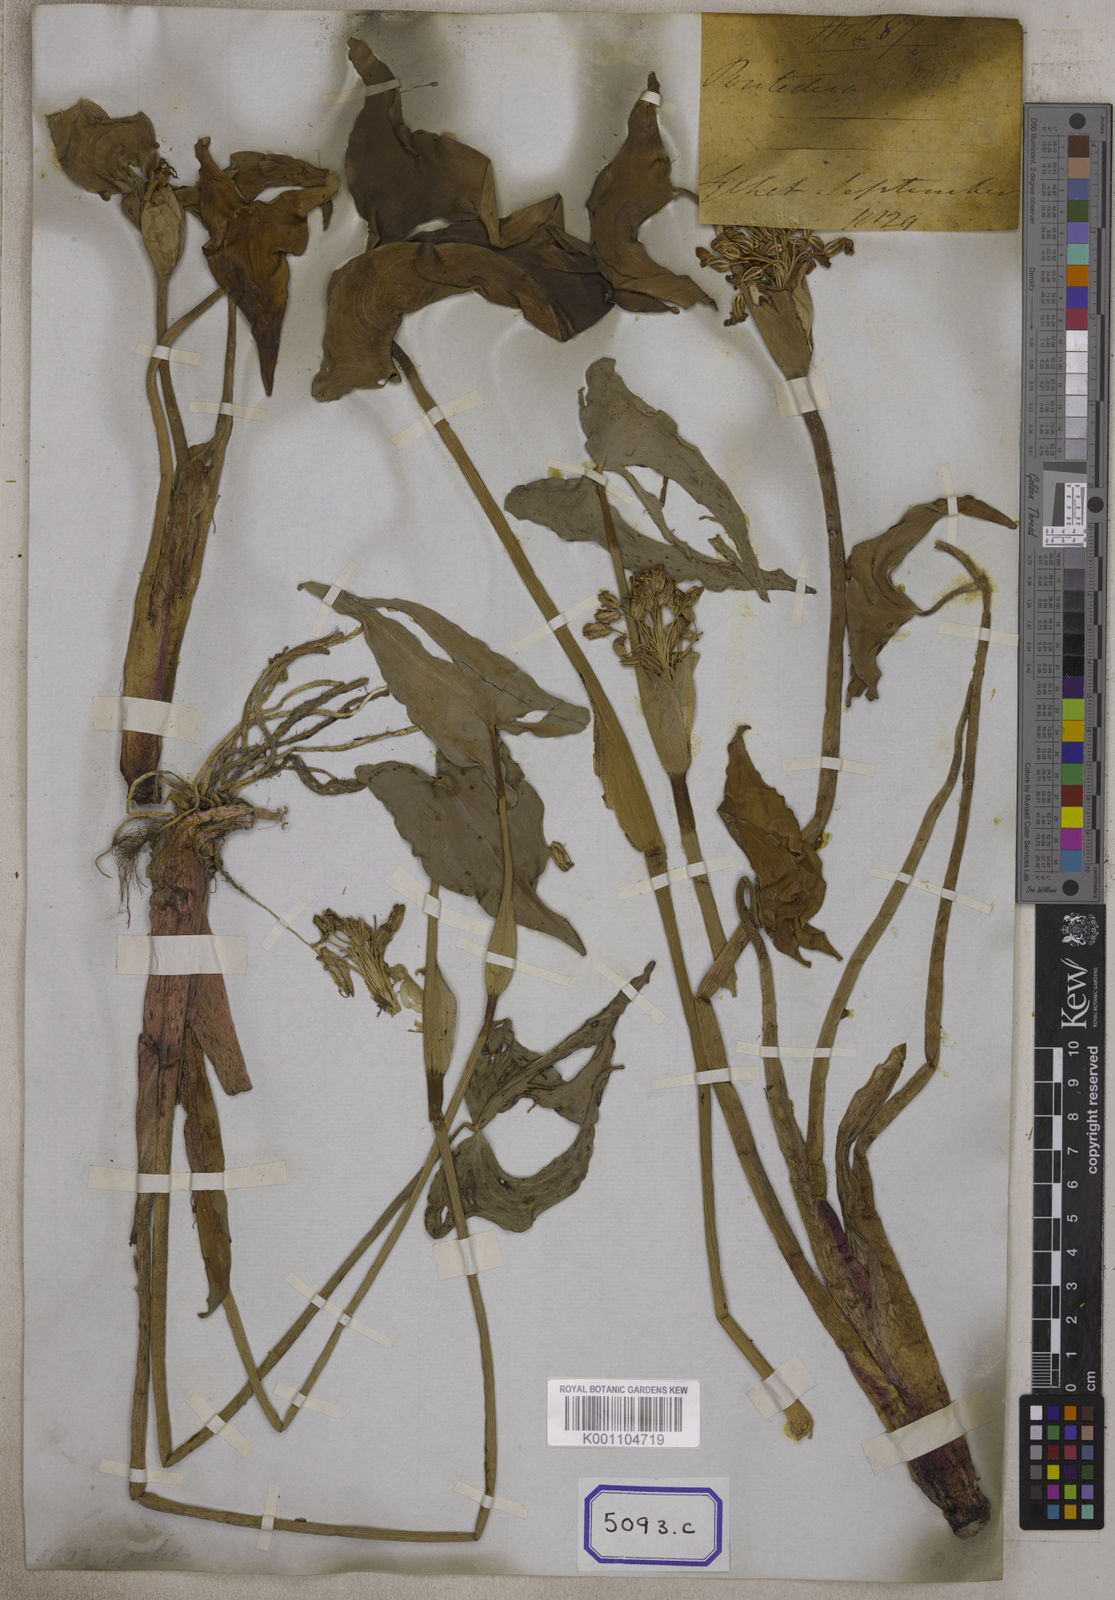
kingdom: Plantae
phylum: Tracheophyta
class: Liliopsida
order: Commelinales
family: Pontederiaceae
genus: Pontederia
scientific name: Pontederia hastata
